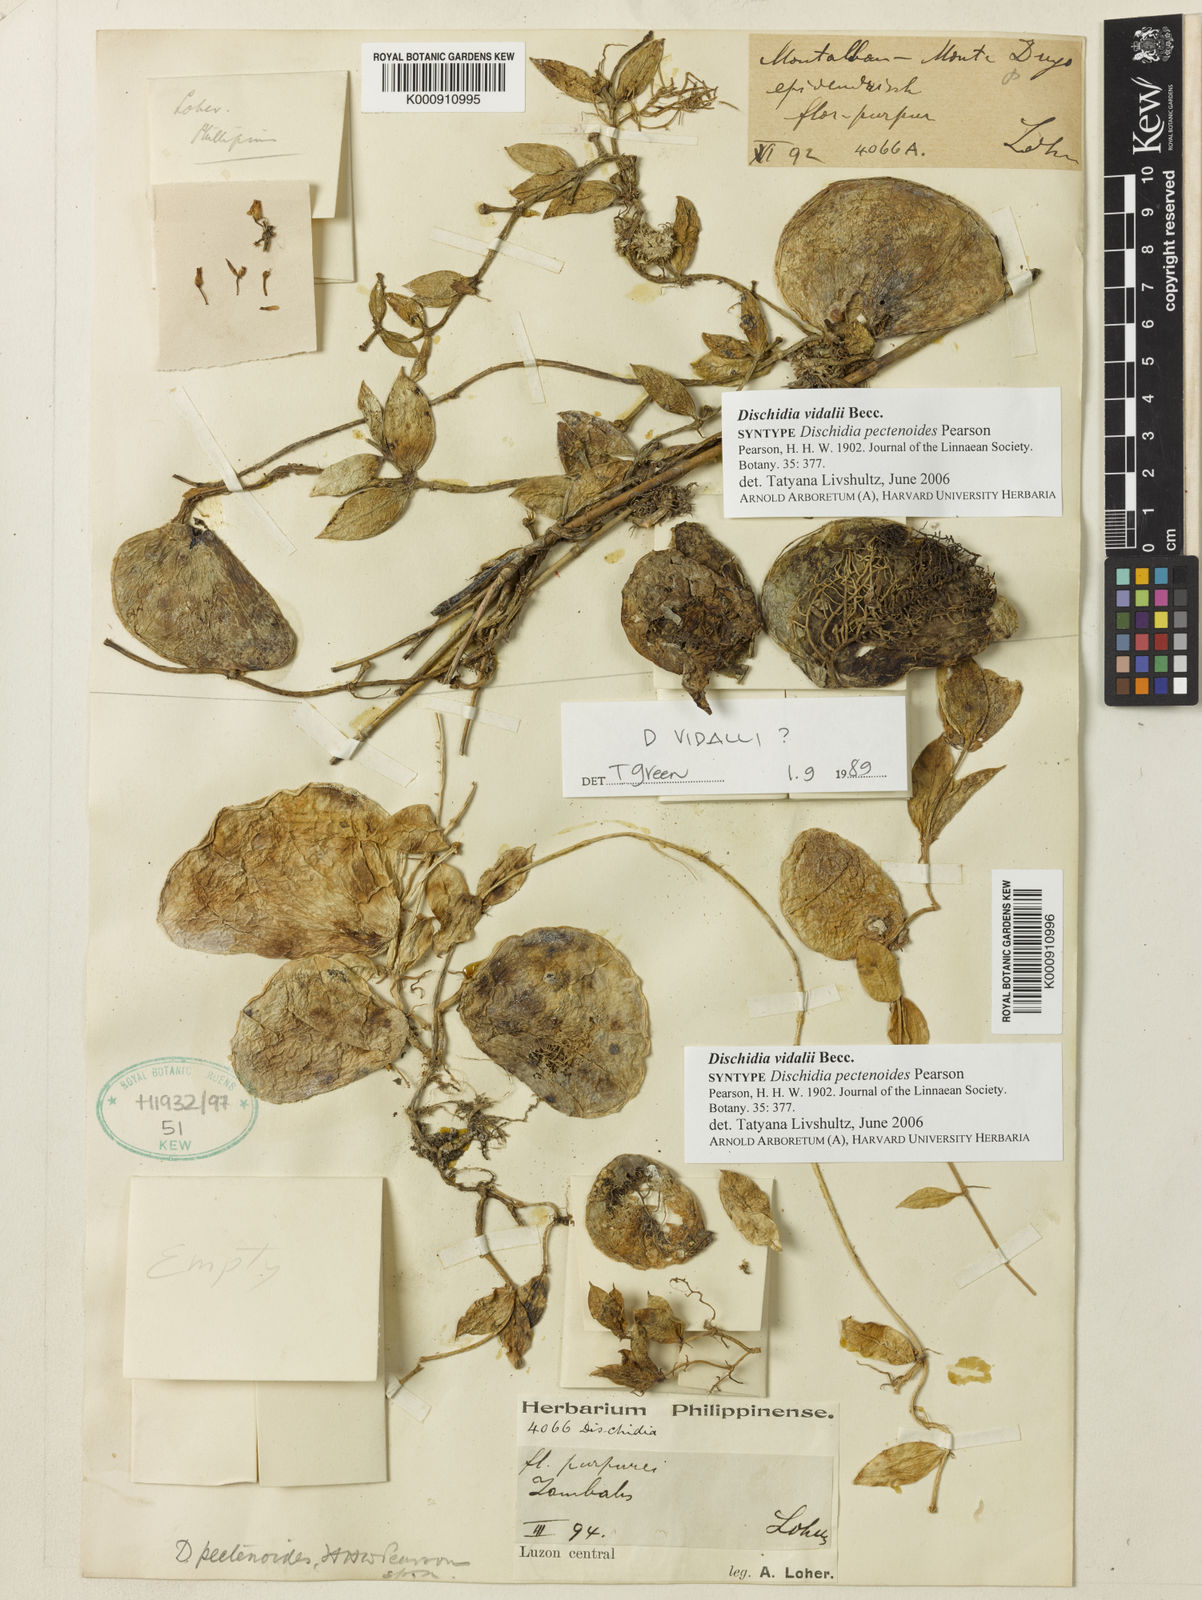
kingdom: Plantae
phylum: Tracheophyta
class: Magnoliopsida
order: Gentianales
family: Apocynaceae
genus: Dischidia
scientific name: Dischidia vidalii
